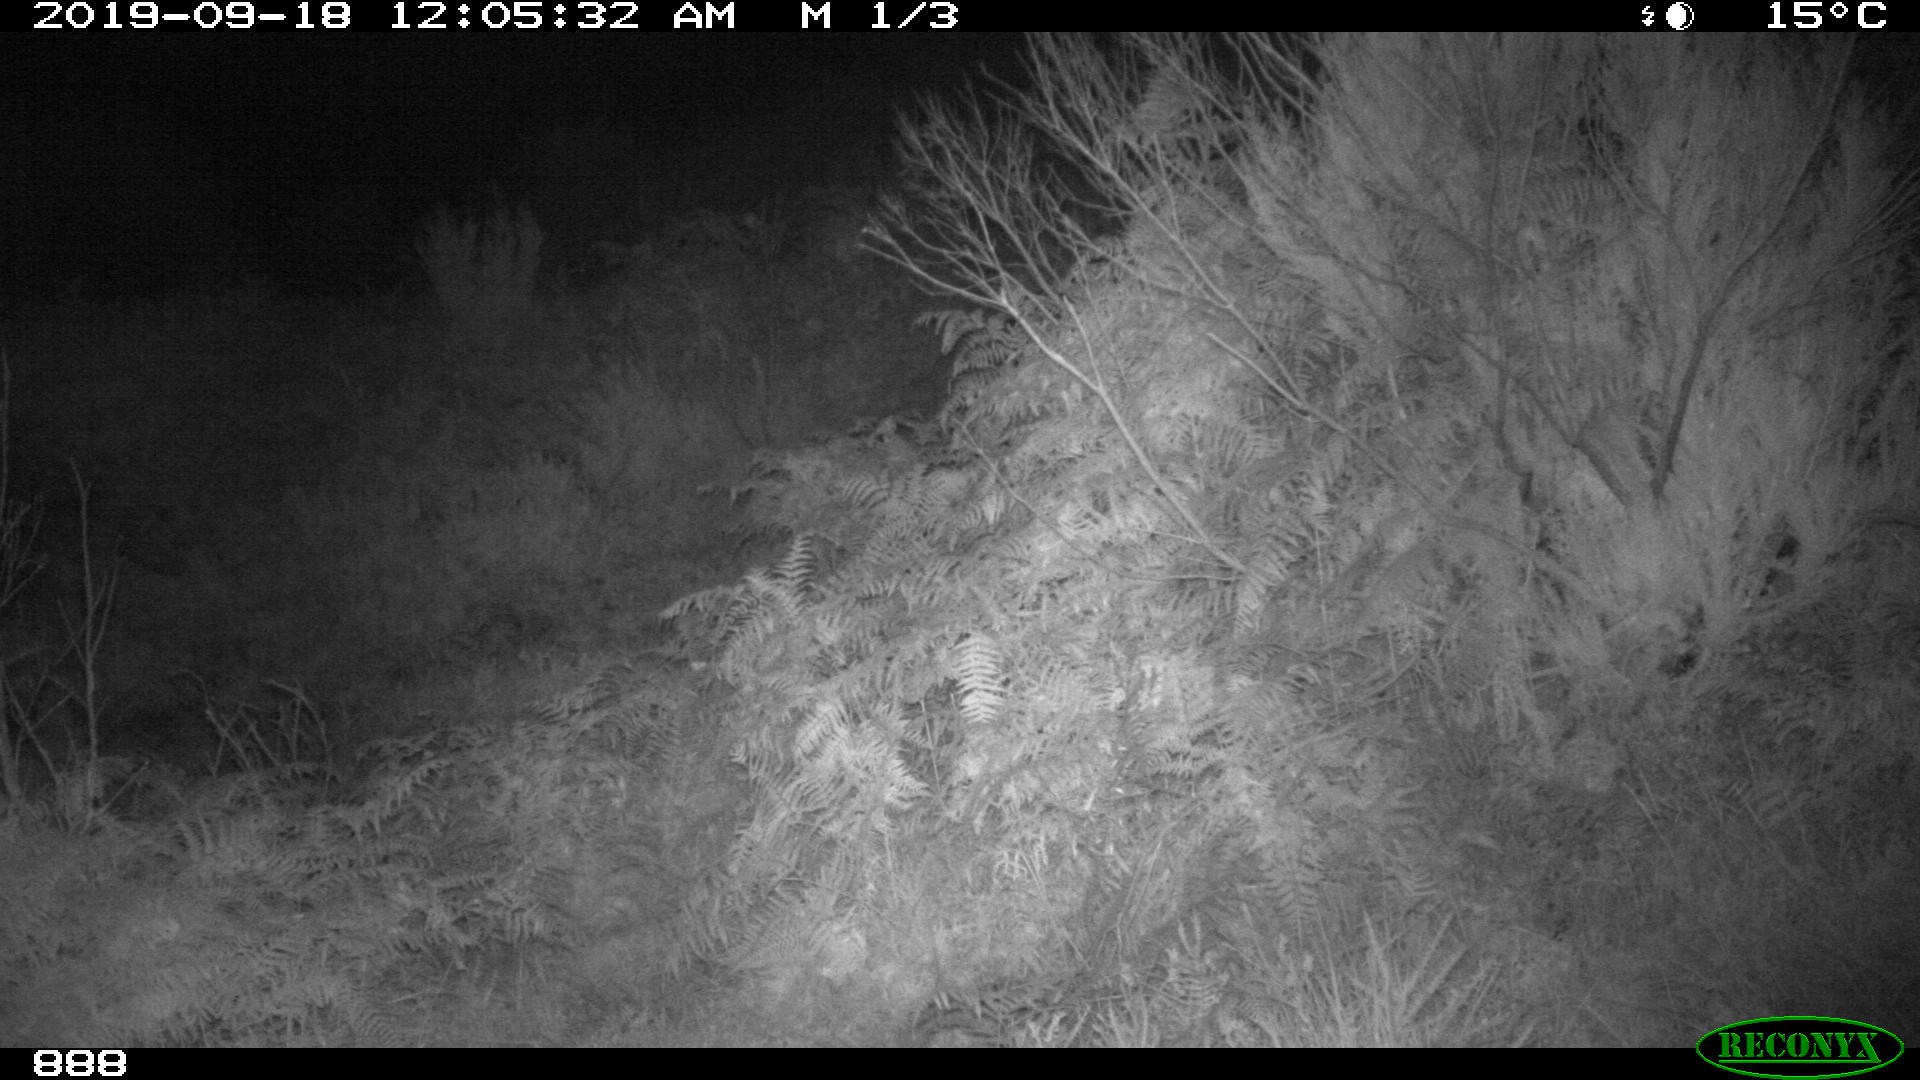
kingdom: Animalia
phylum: Chordata
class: Mammalia
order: Carnivora
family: Canidae
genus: Vulpes
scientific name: Vulpes vulpes
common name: Red fox
